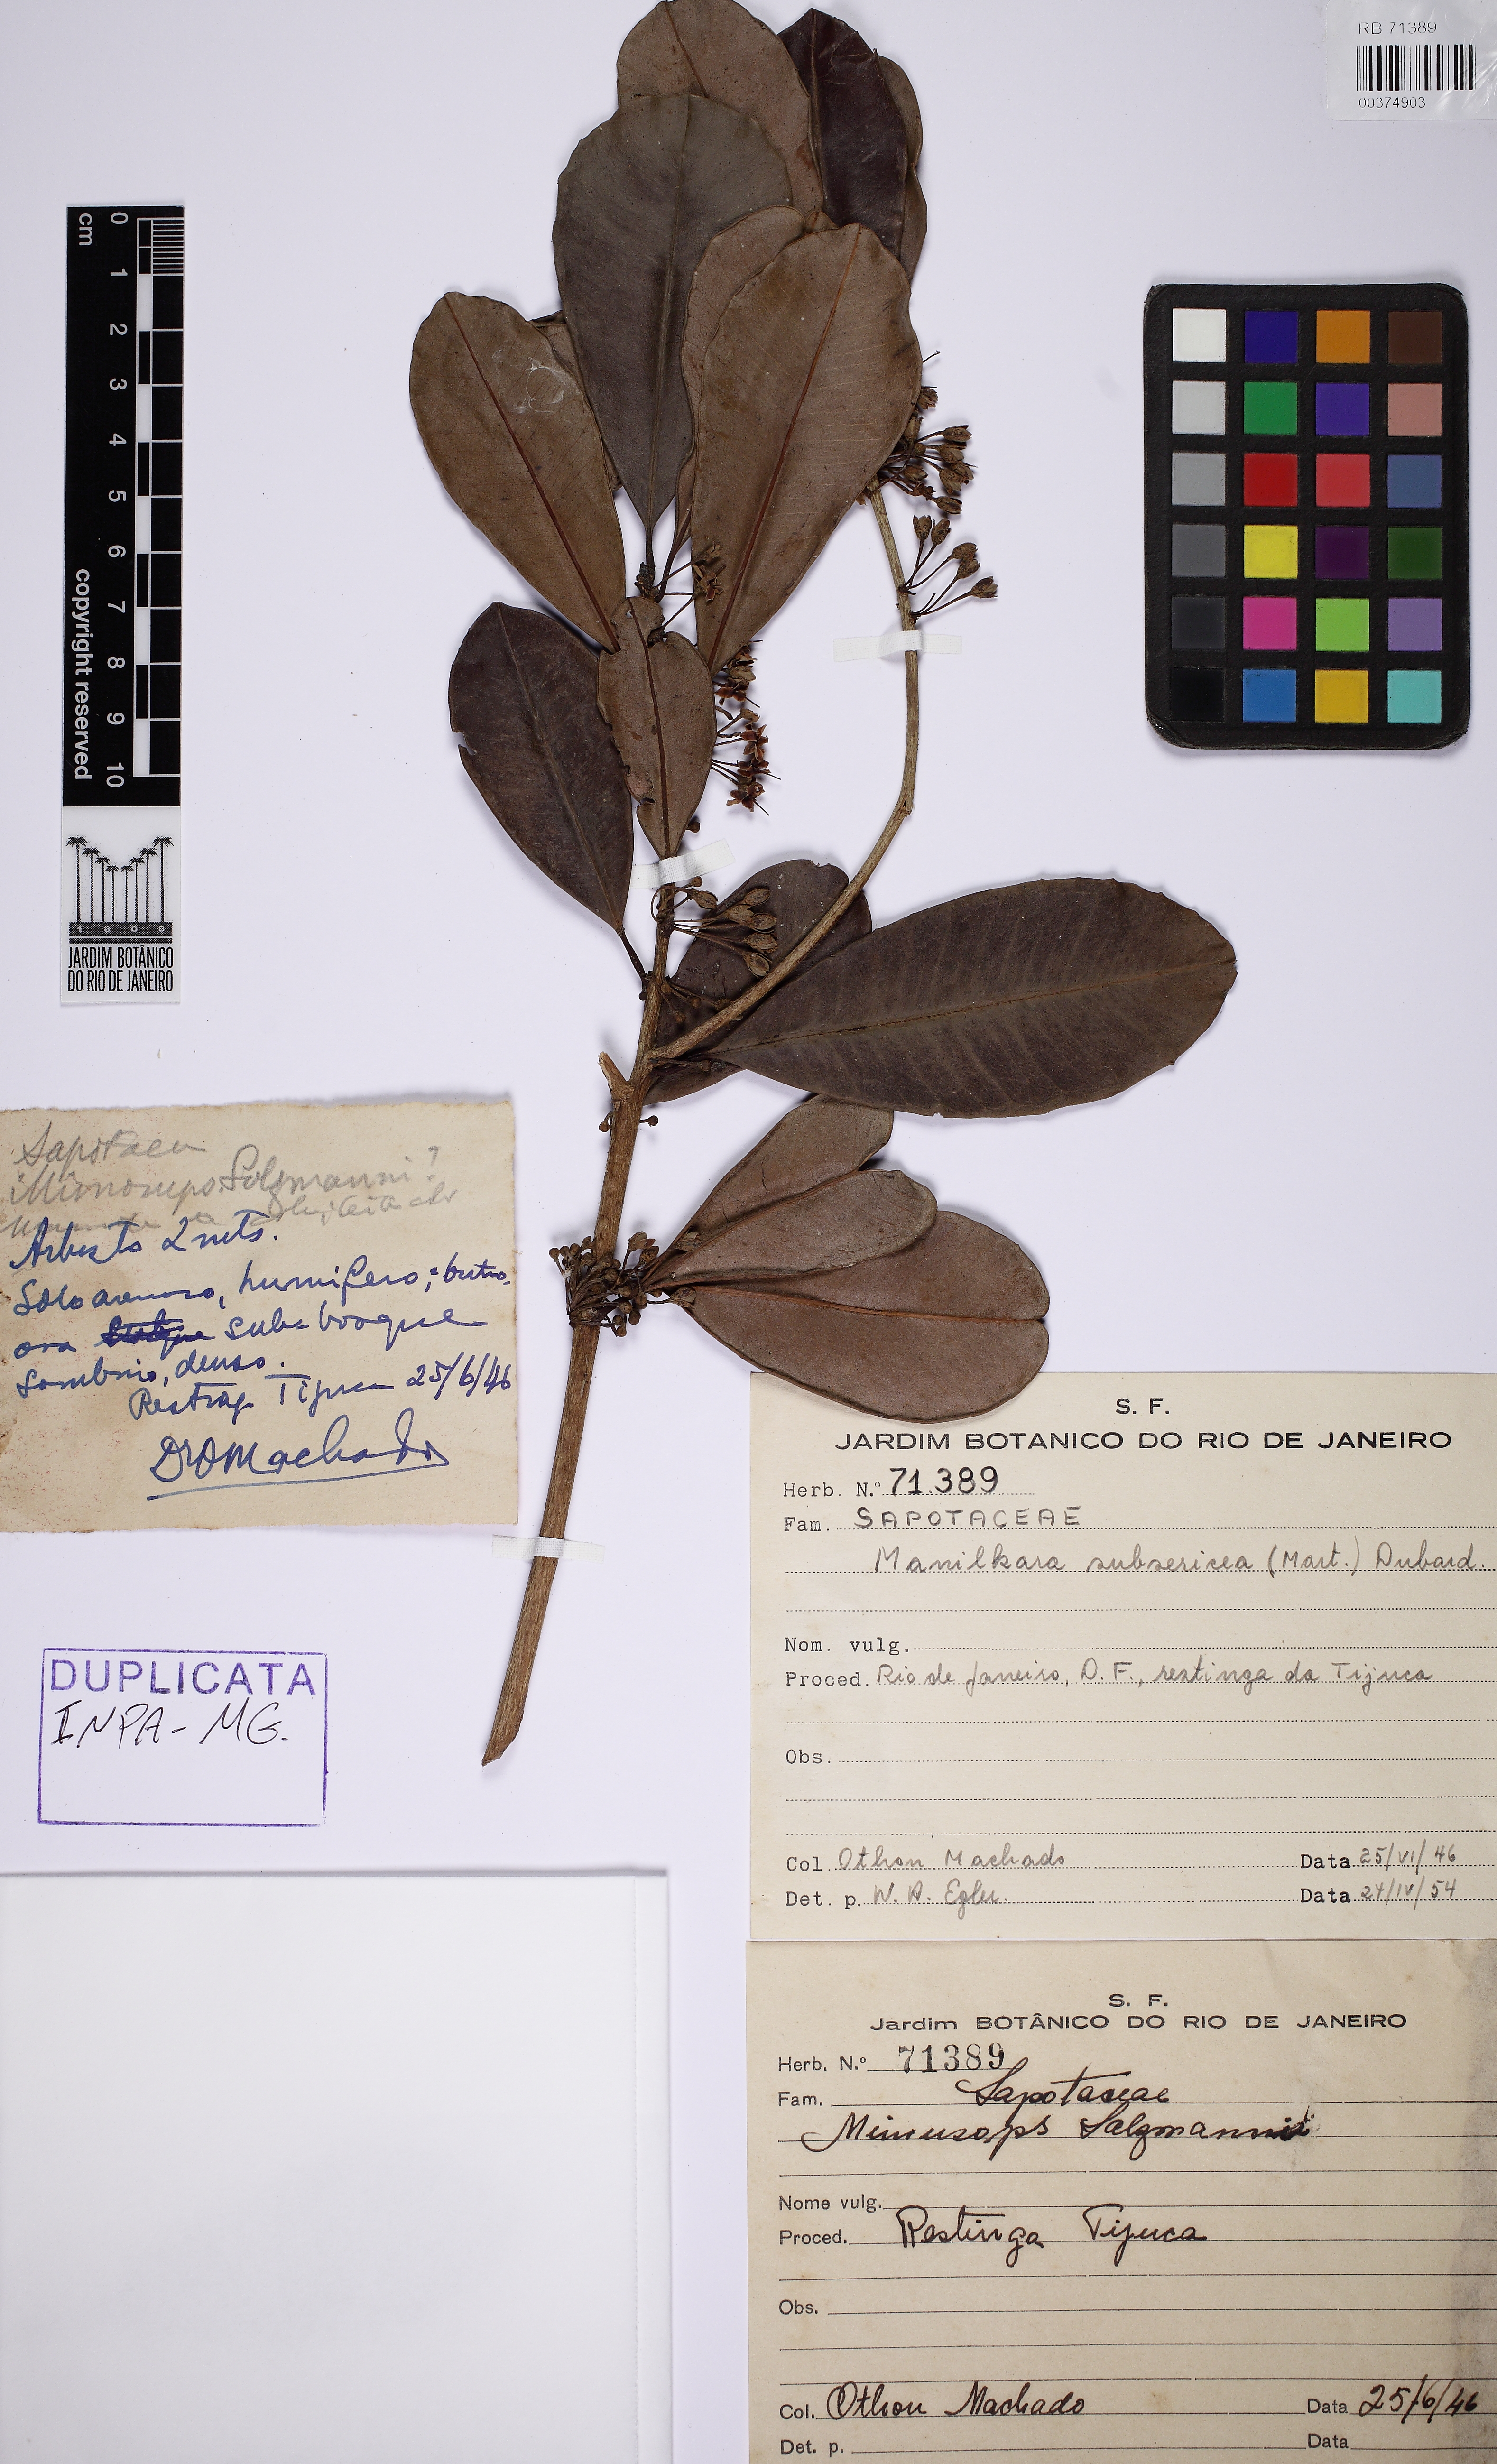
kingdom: Plantae
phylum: Tracheophyta
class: Magnoliopsida
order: Ericales
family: Sapotaceae
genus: Manilkara
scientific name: Manilkara subsericea
